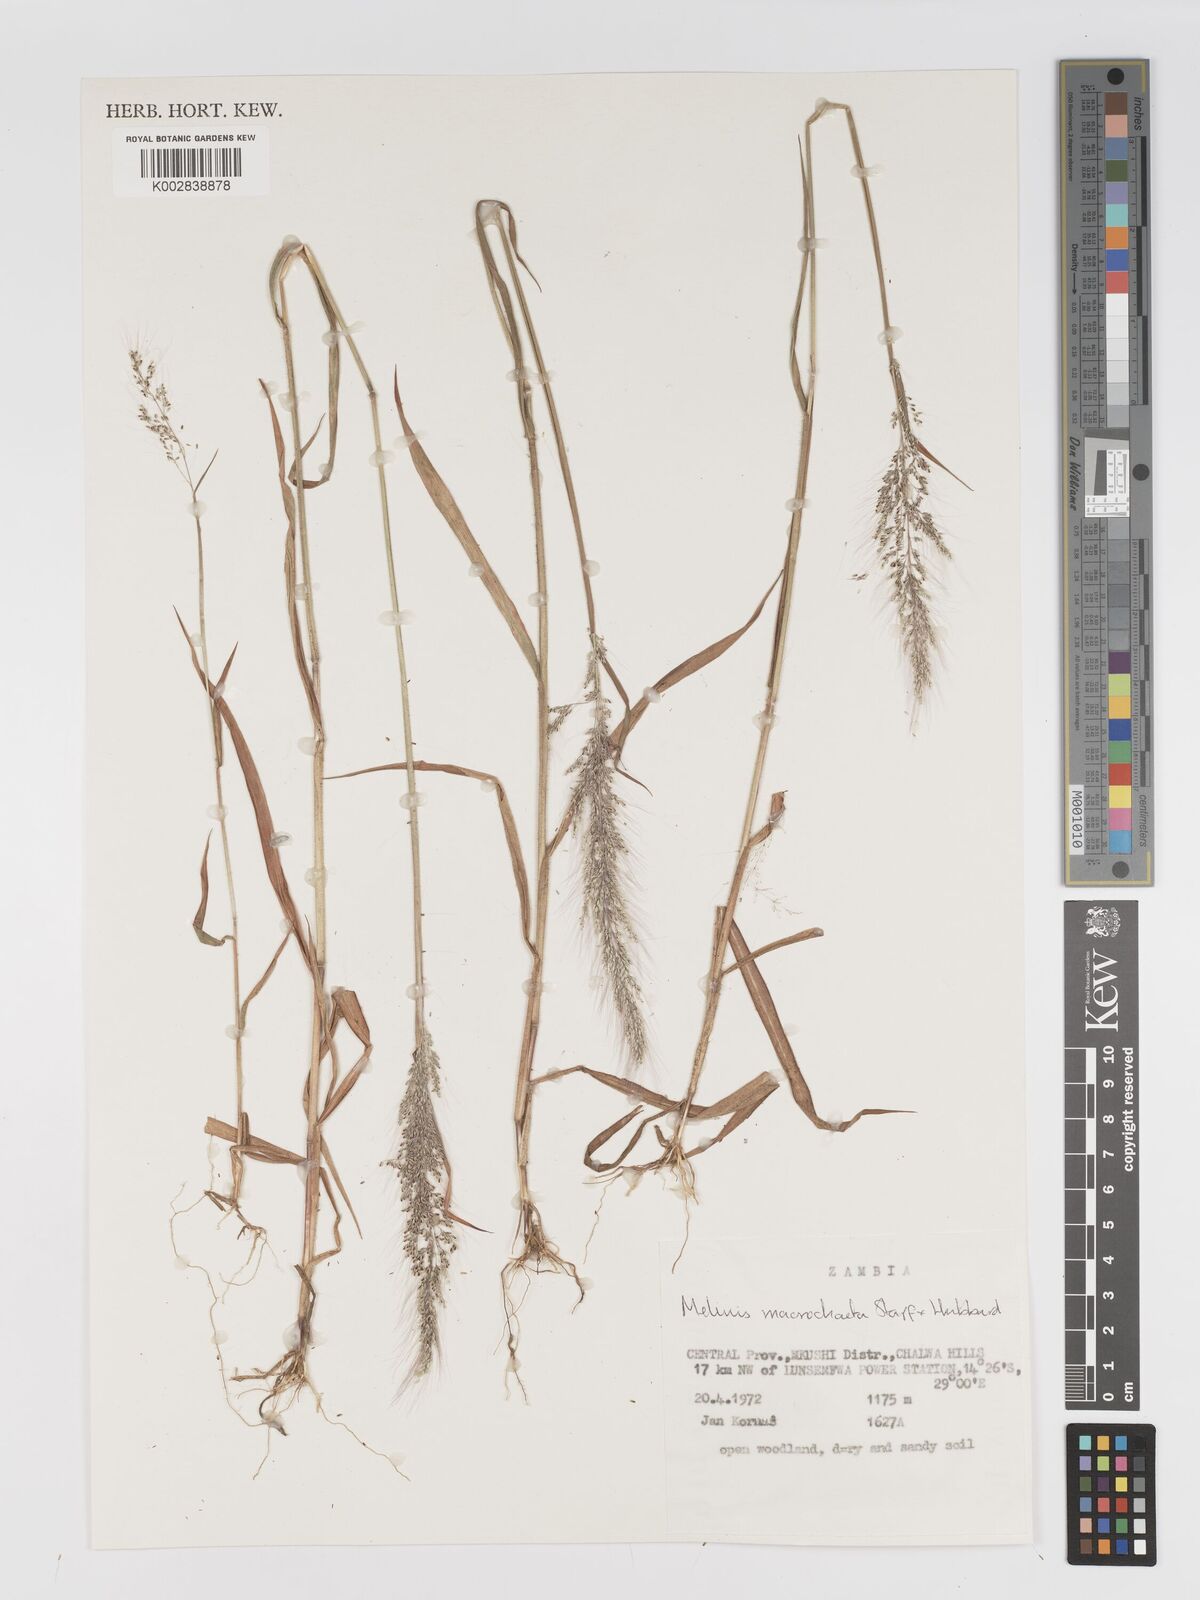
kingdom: Plantae
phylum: Tracheophyta
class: Liliopsida
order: Poales
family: Poaceae
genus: Melinis
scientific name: Melinis macrochaeta
